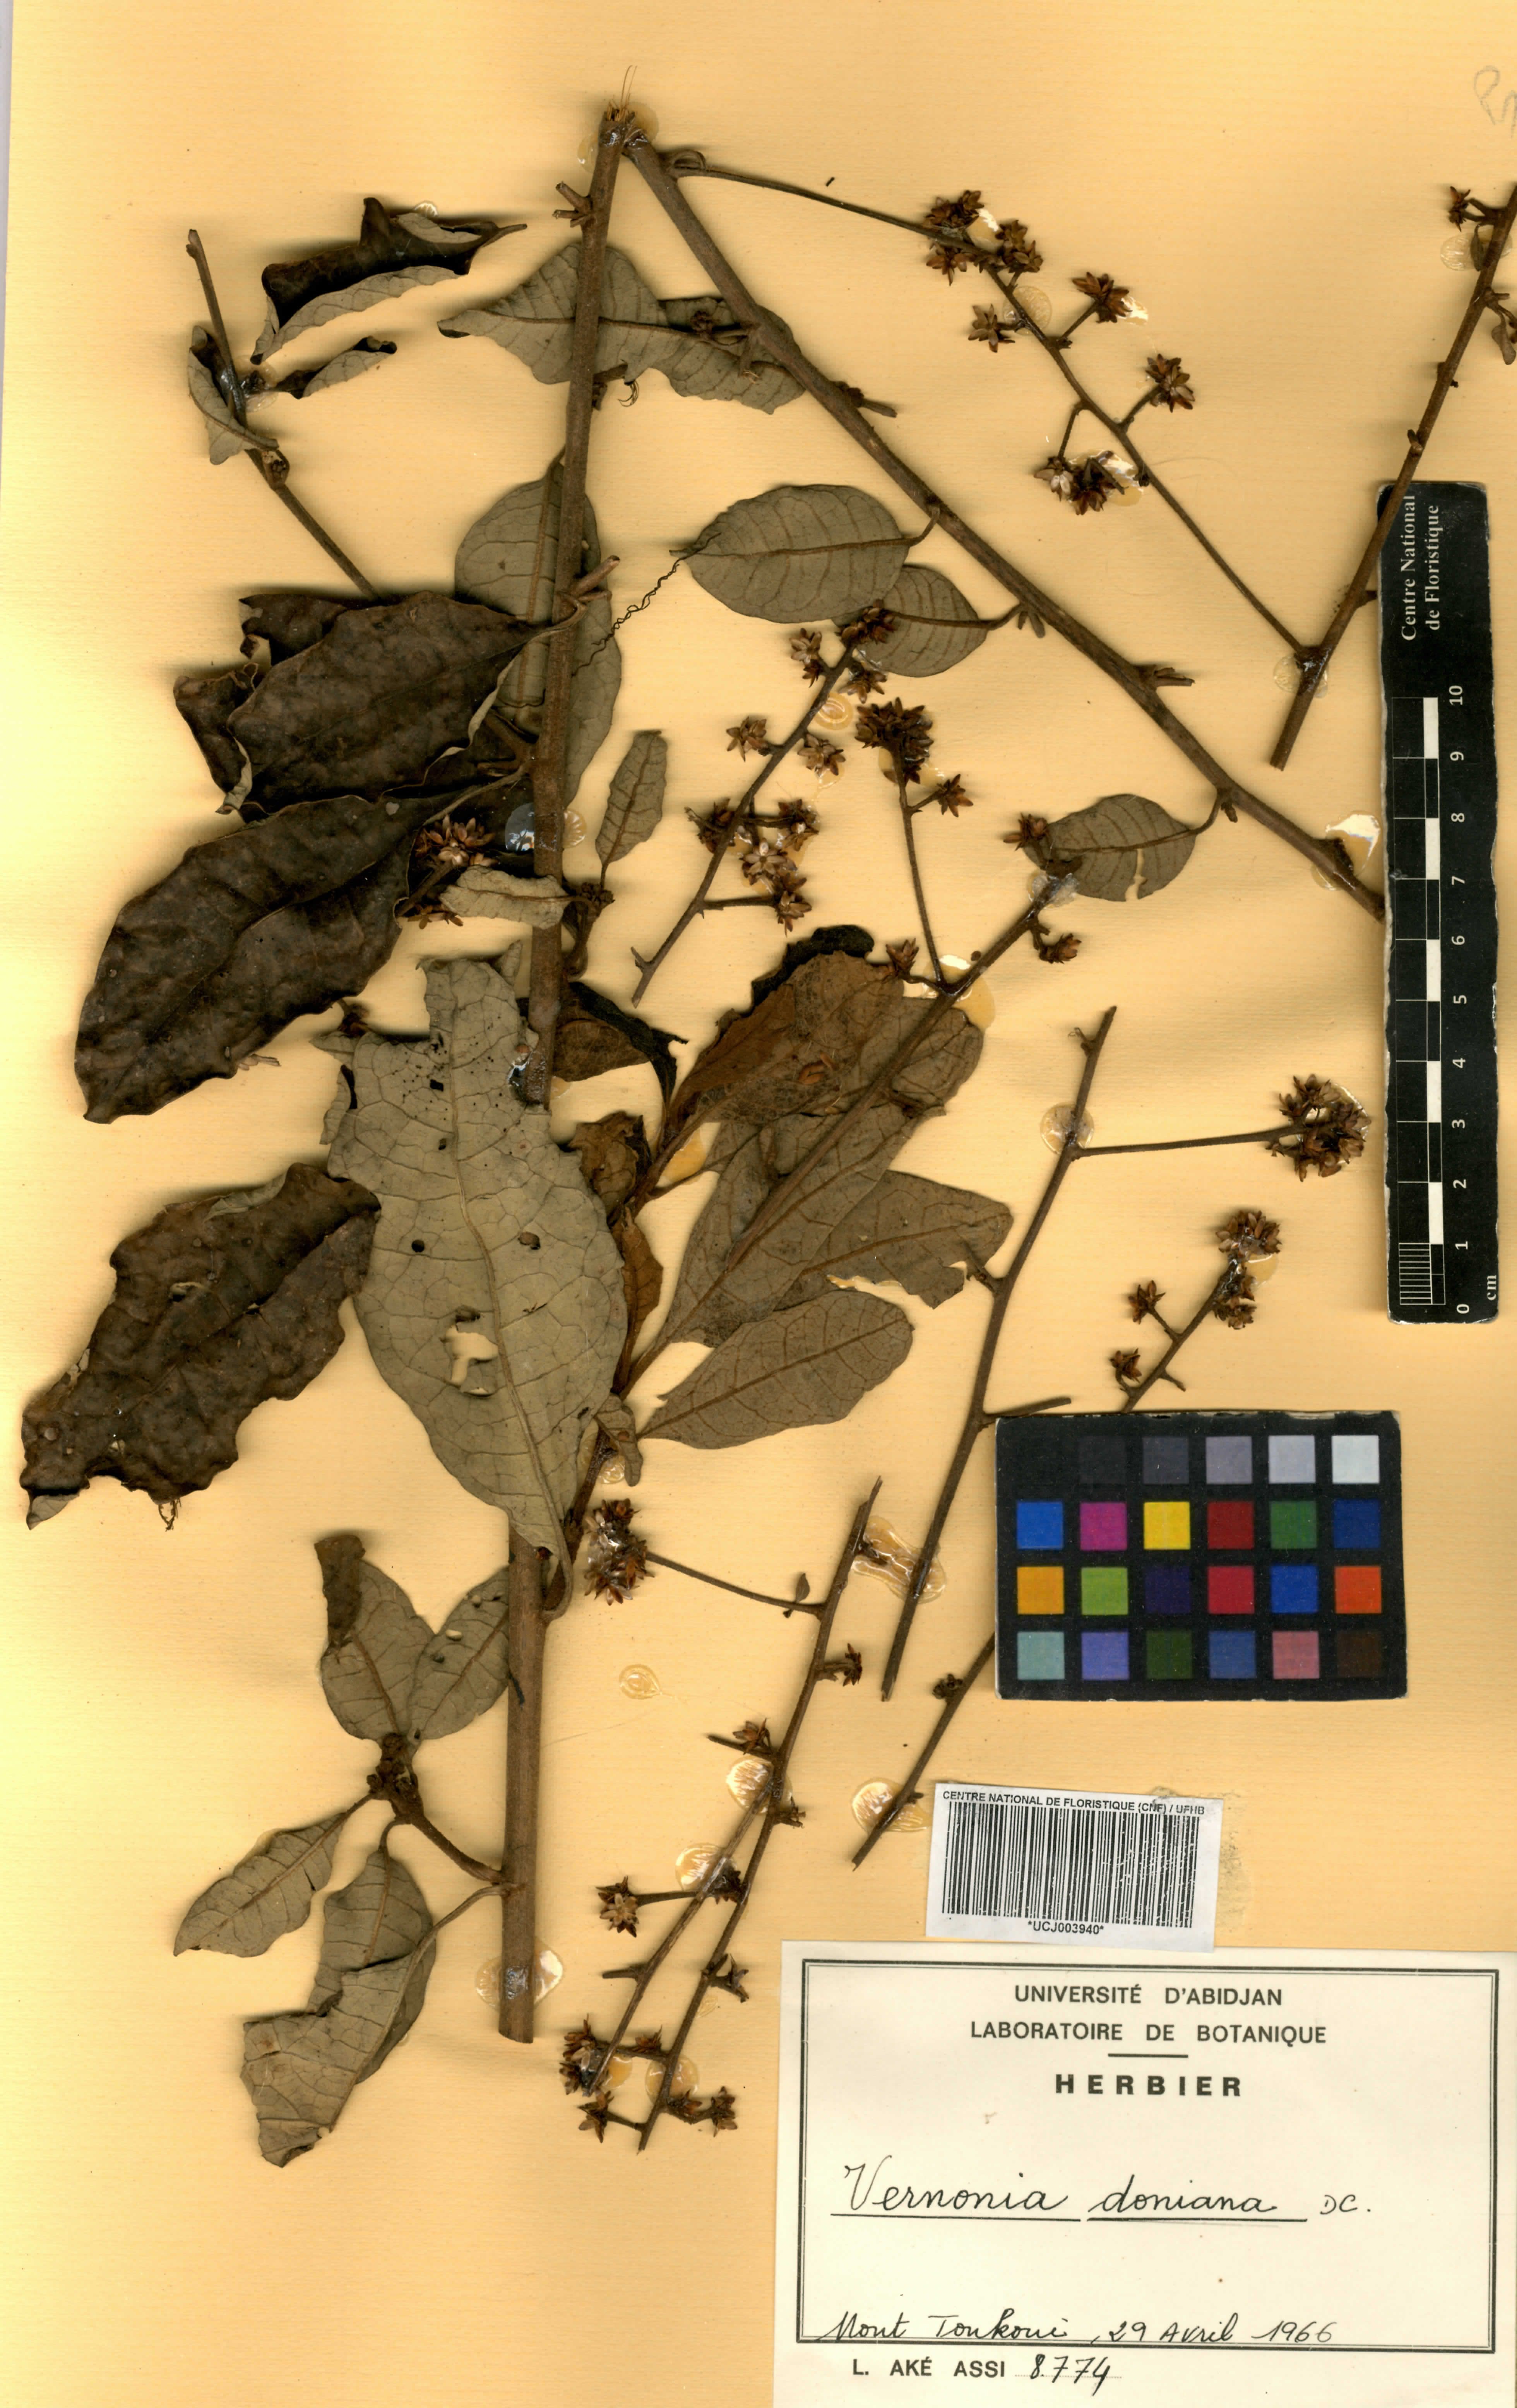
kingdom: Plantae
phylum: Tracheophyta
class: Magnoliopsida
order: Asterales
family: Asteraceae
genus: Brenandendron
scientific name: Brenandendron donianum
